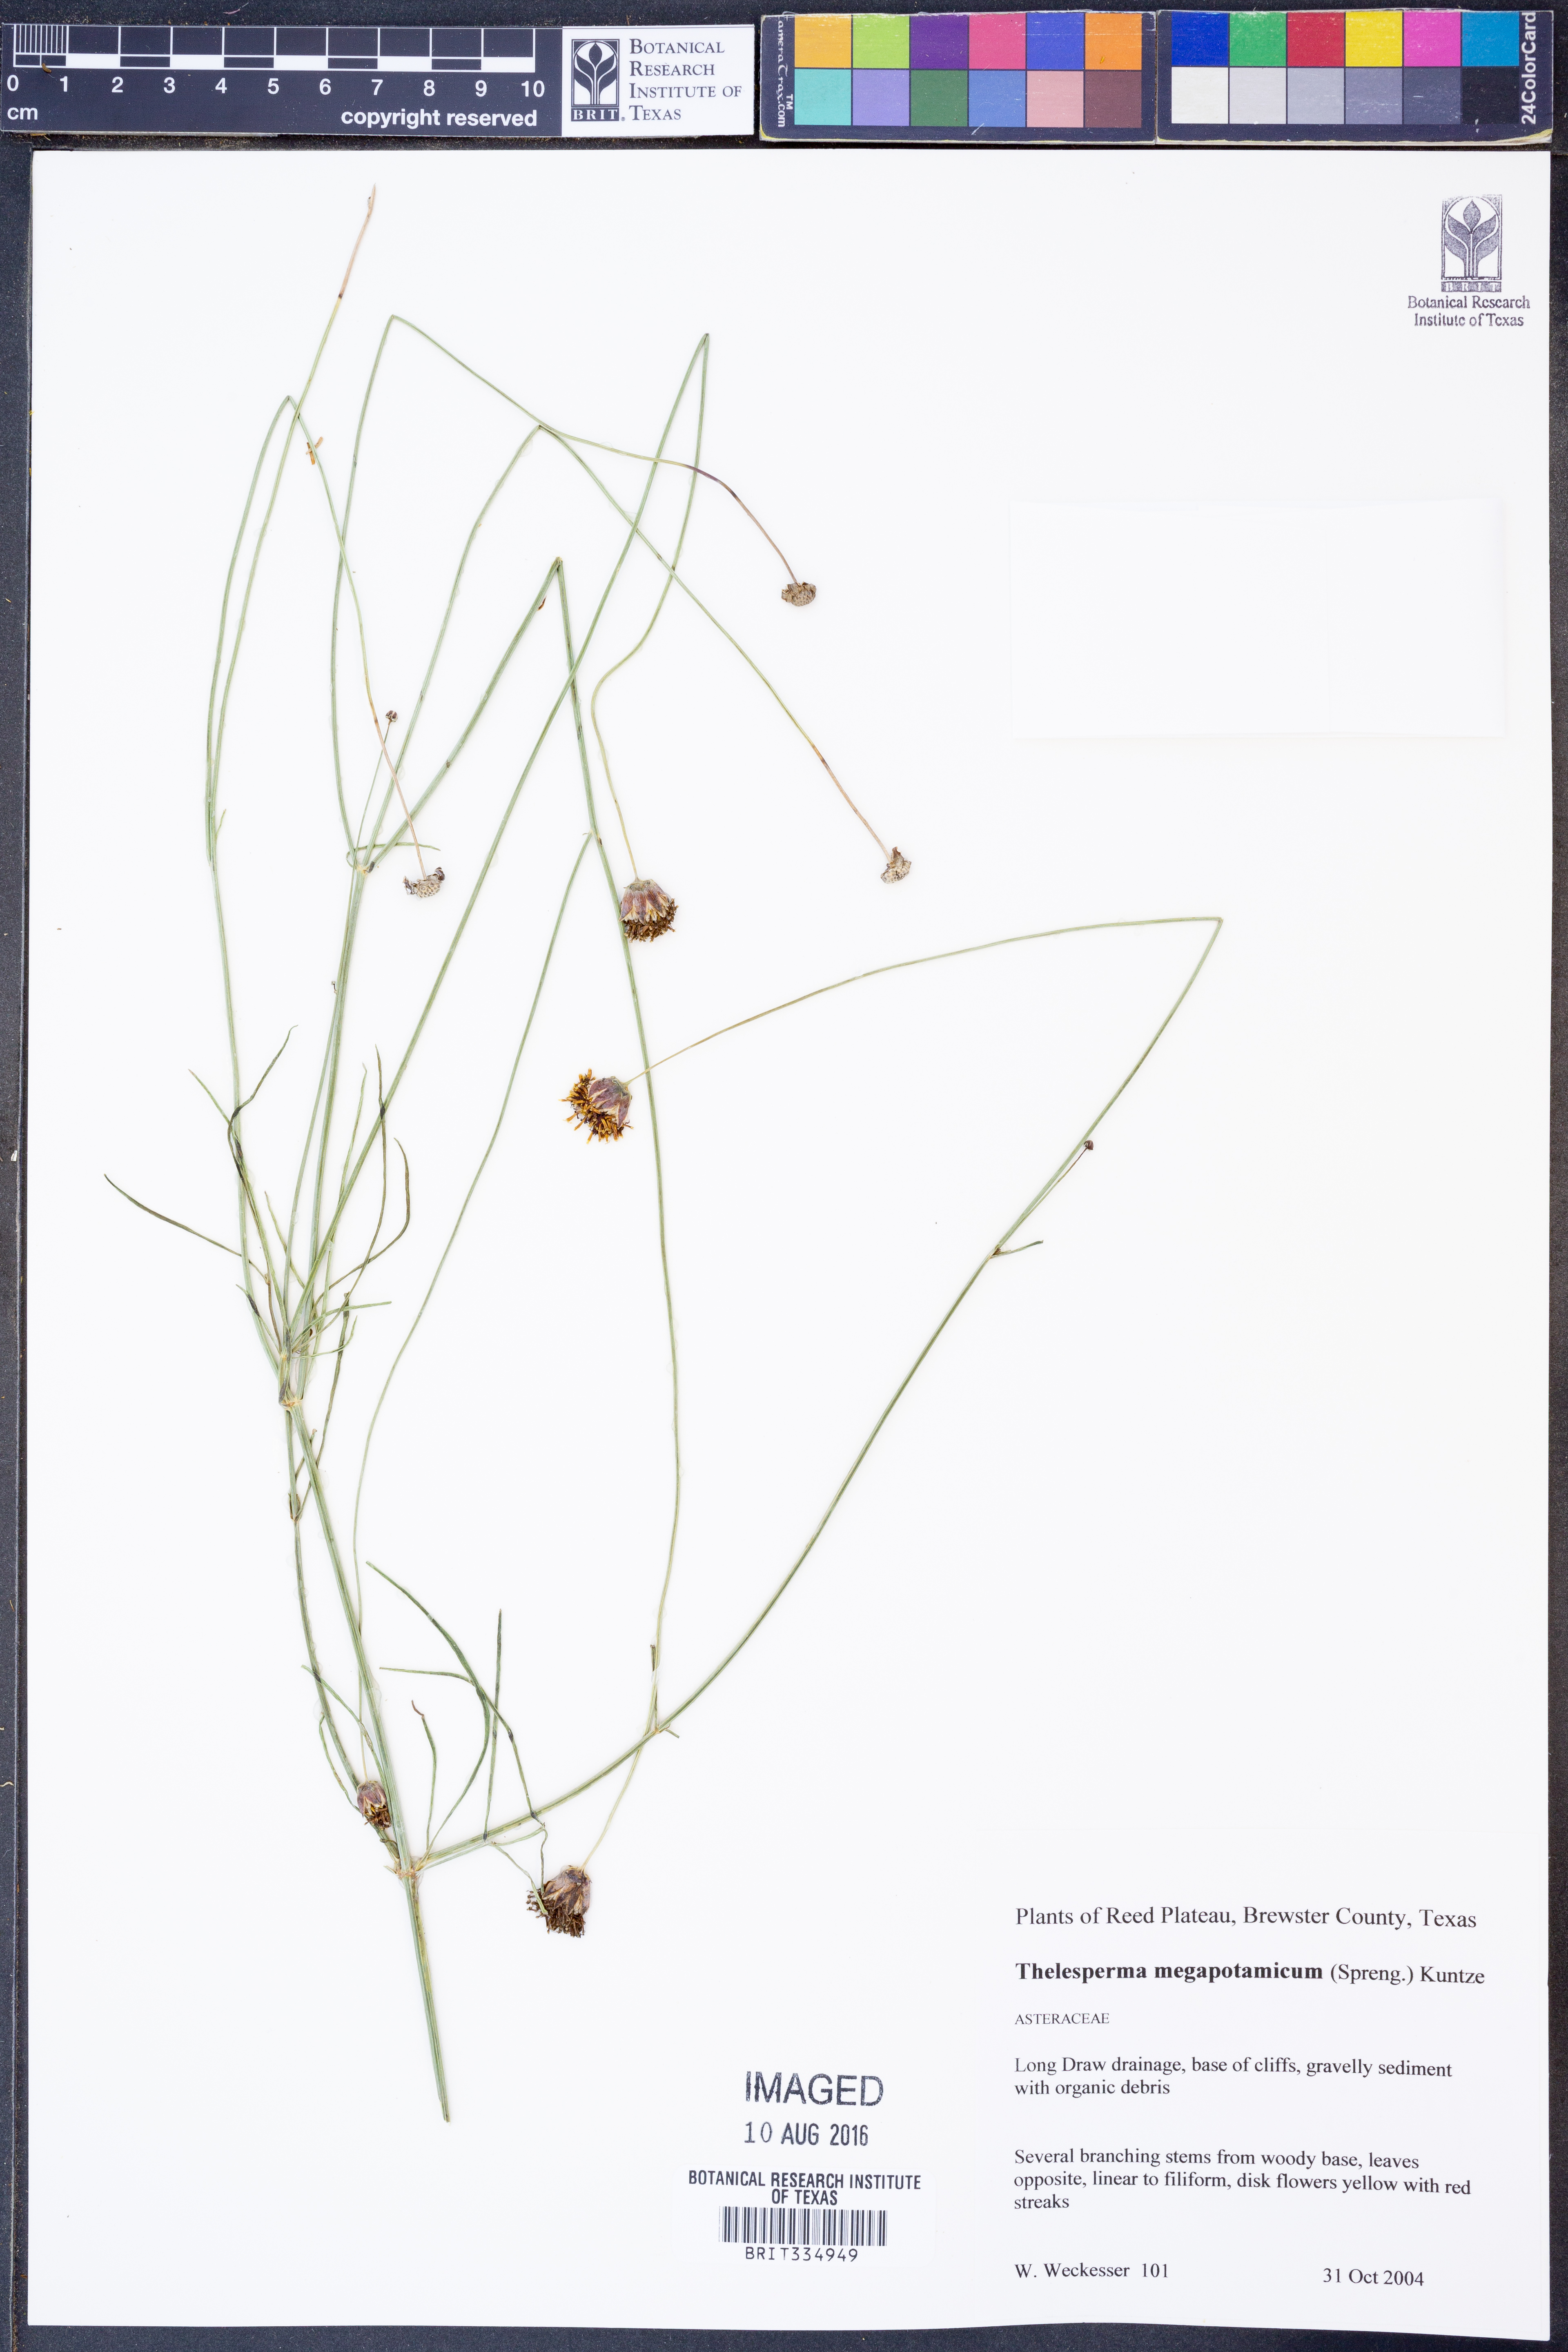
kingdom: Plantae
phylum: Tracheophyta
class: Magnoliopsida
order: Asterales
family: Asteraceae
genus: Thelesperma
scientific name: Thelesperma megapotamicum
